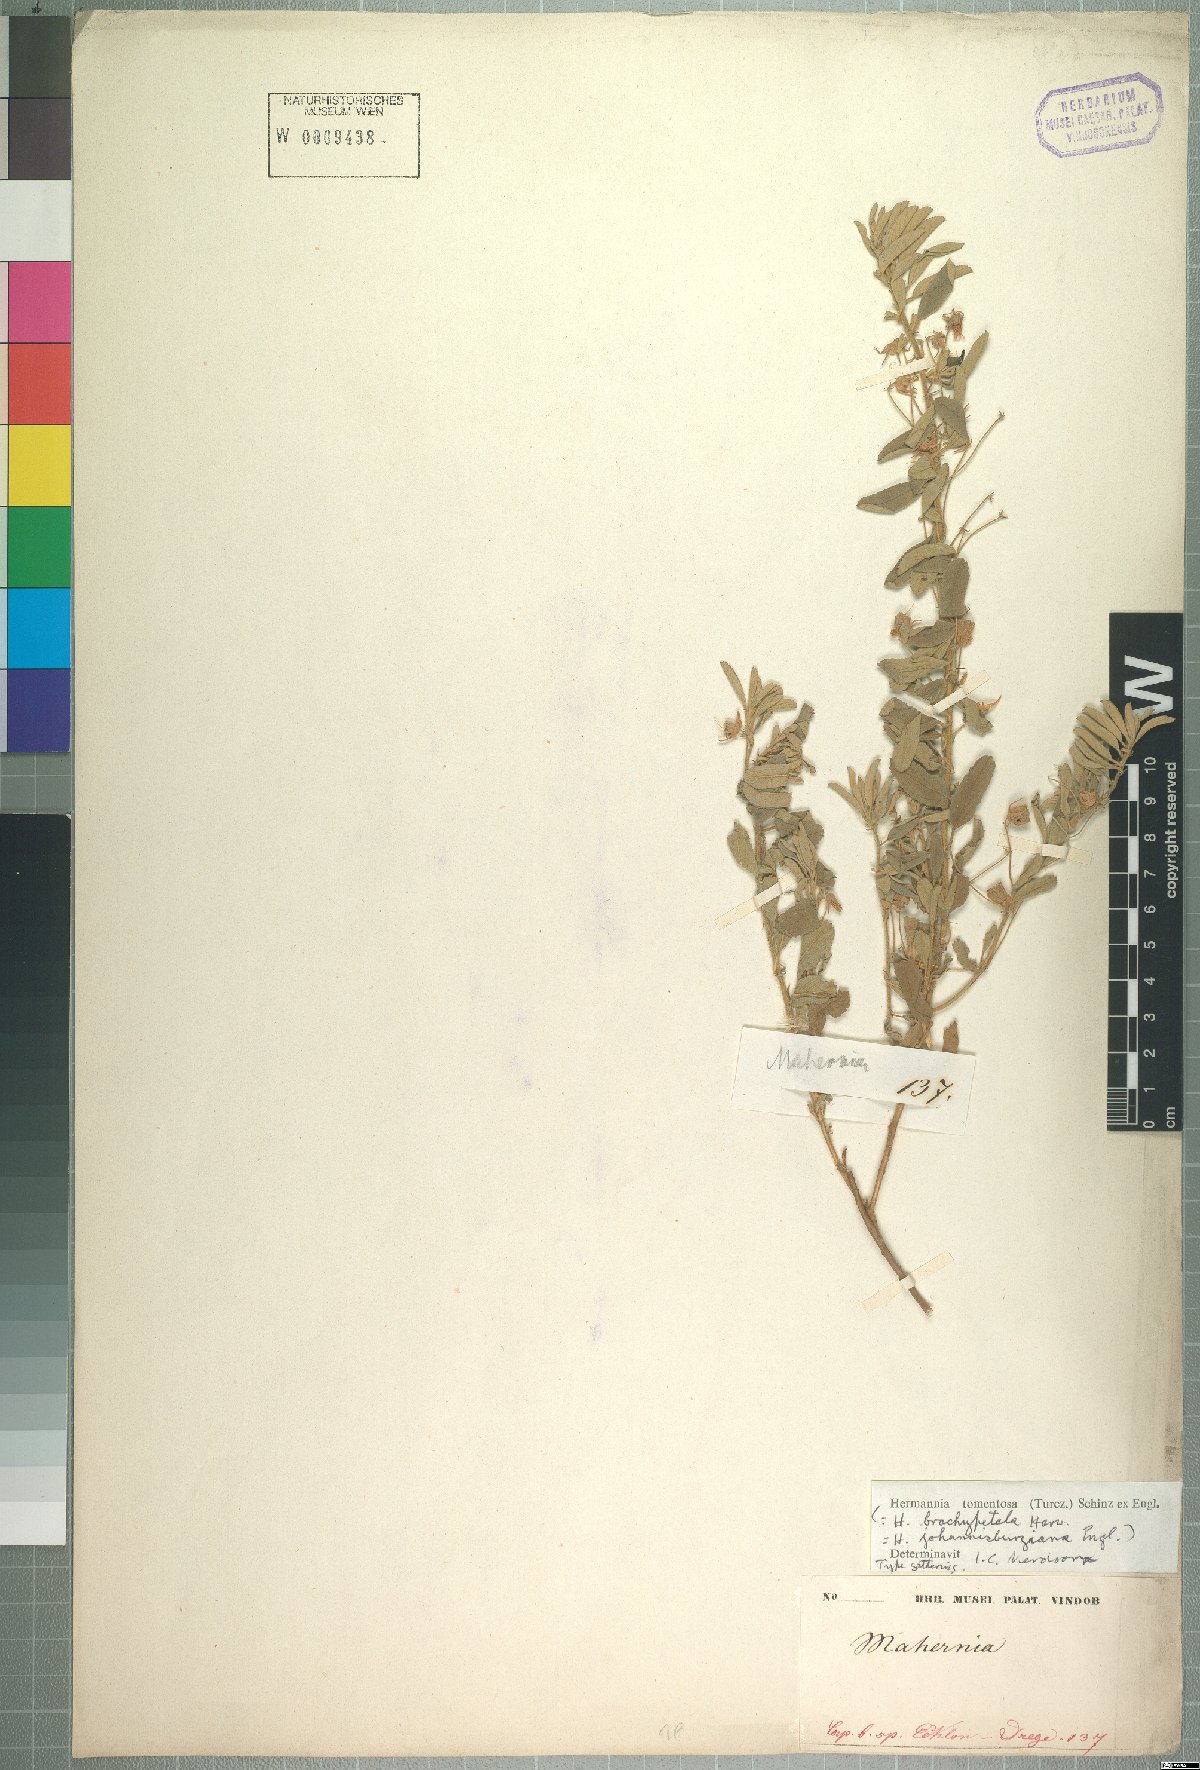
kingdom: Plantae
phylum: Tracheophyta
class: Magnoliopsida
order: Malvales
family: Malvaceae
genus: Hermannia
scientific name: Hermannia tomentosa
